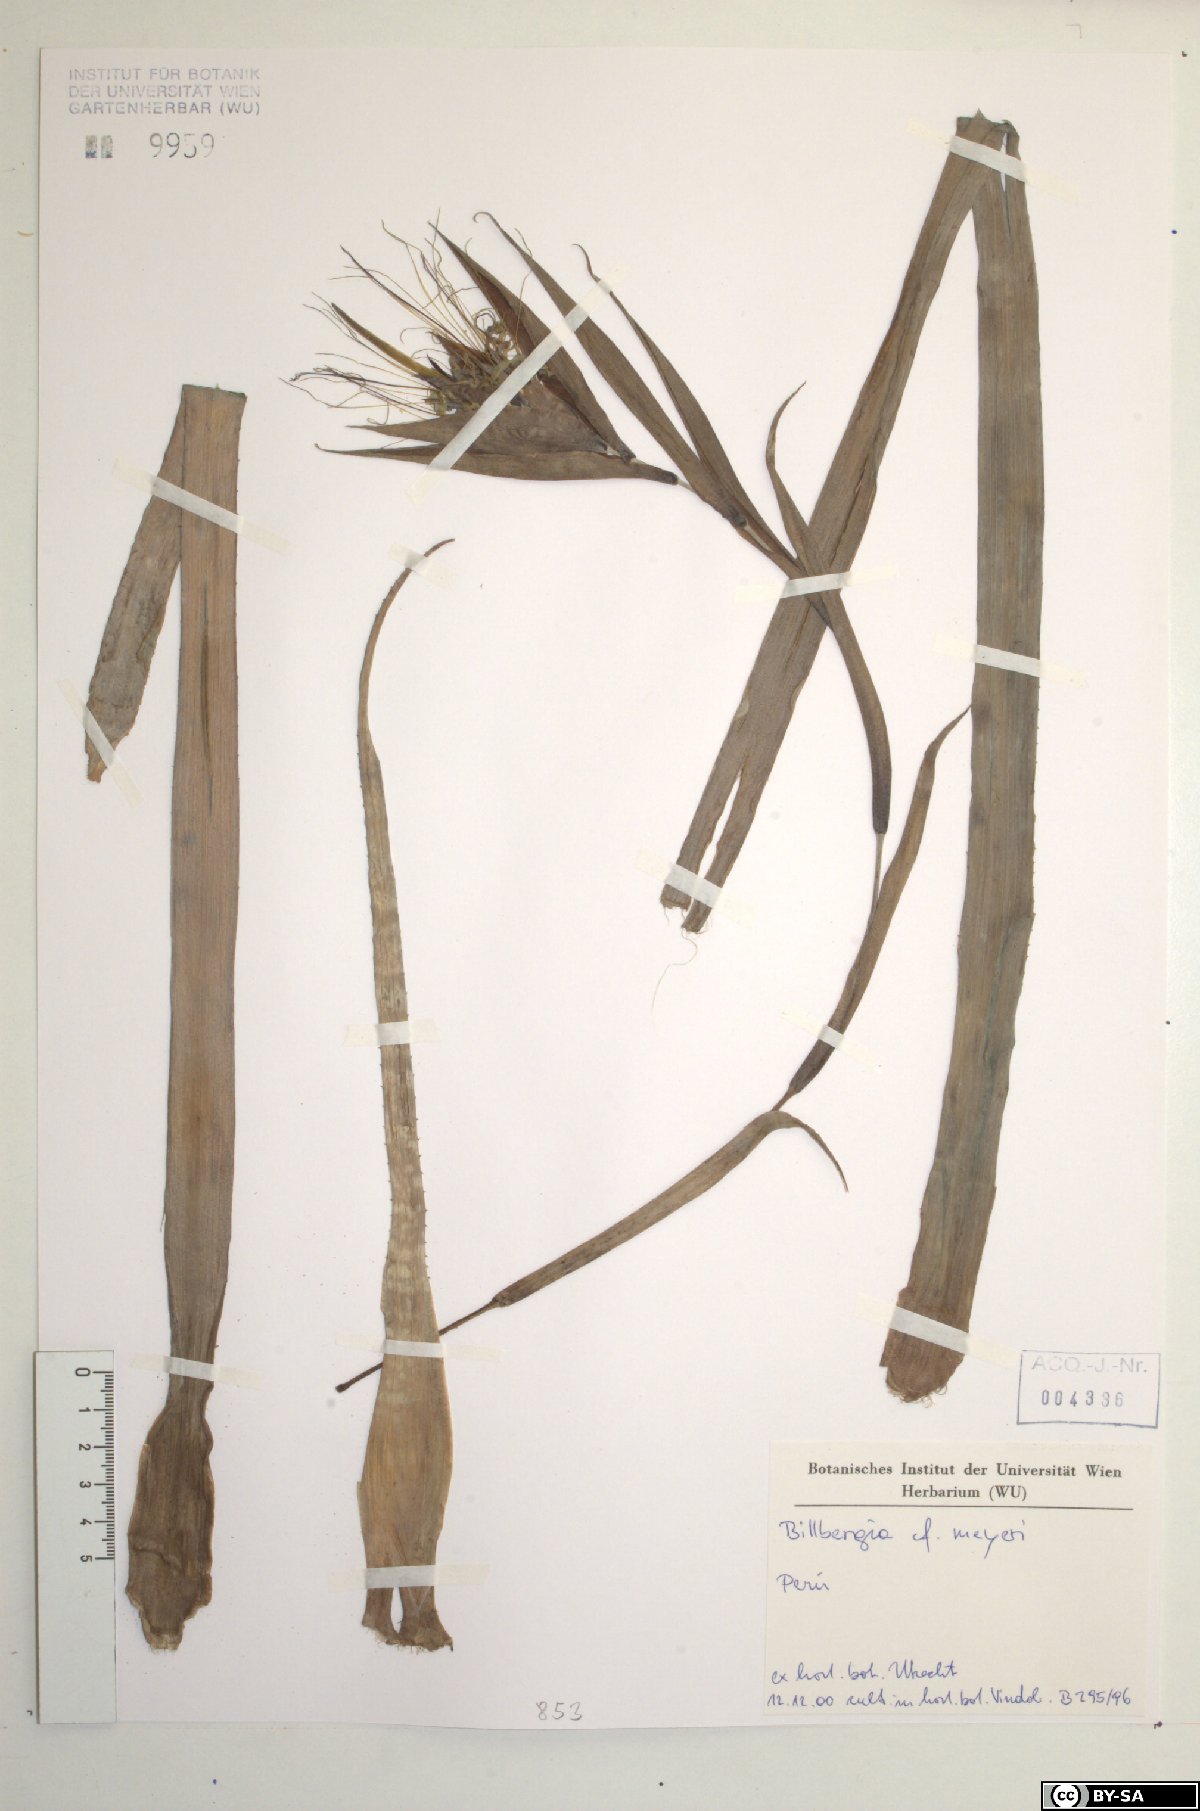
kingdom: Plantae
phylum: Tracheophyta
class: Liliopsida
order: Poales
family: Bromeliaceae
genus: Billbergia
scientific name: Billbergia meyeri
